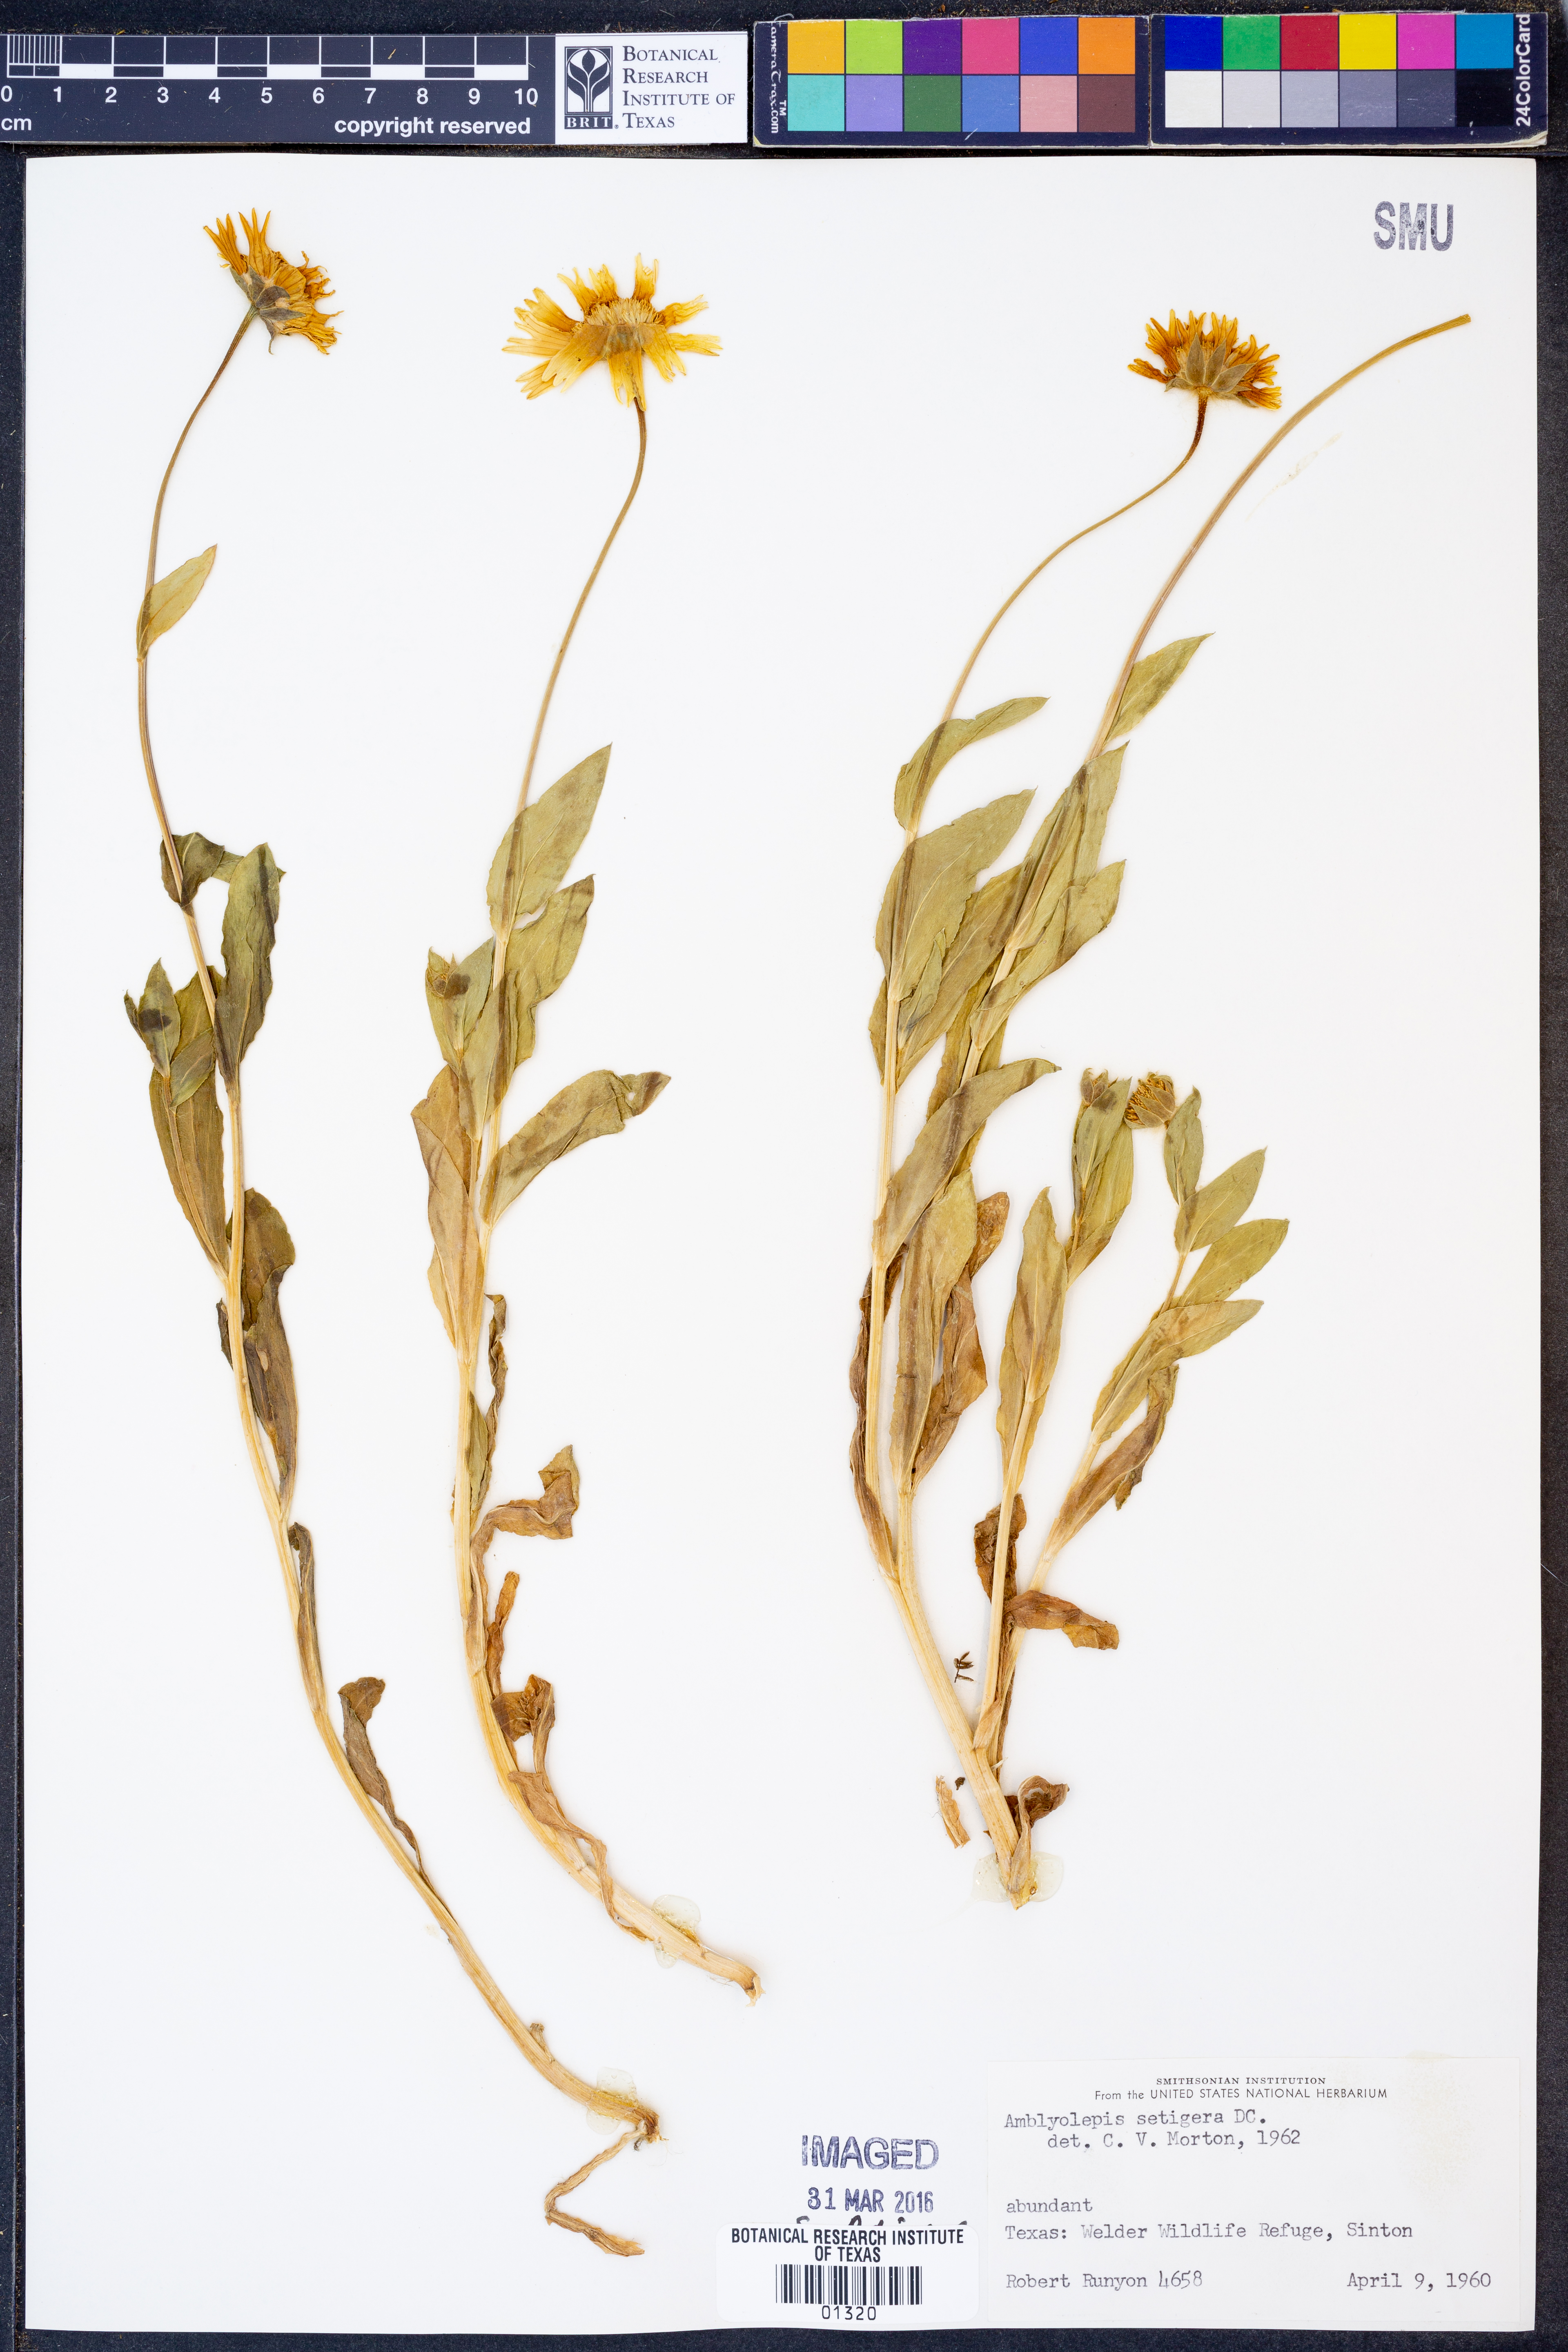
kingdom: Plantae
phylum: Tracheophyta
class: Magnoliopsida
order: Asterales
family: Asteraceae
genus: Amblyolepis
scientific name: Amblyolepis setigera
